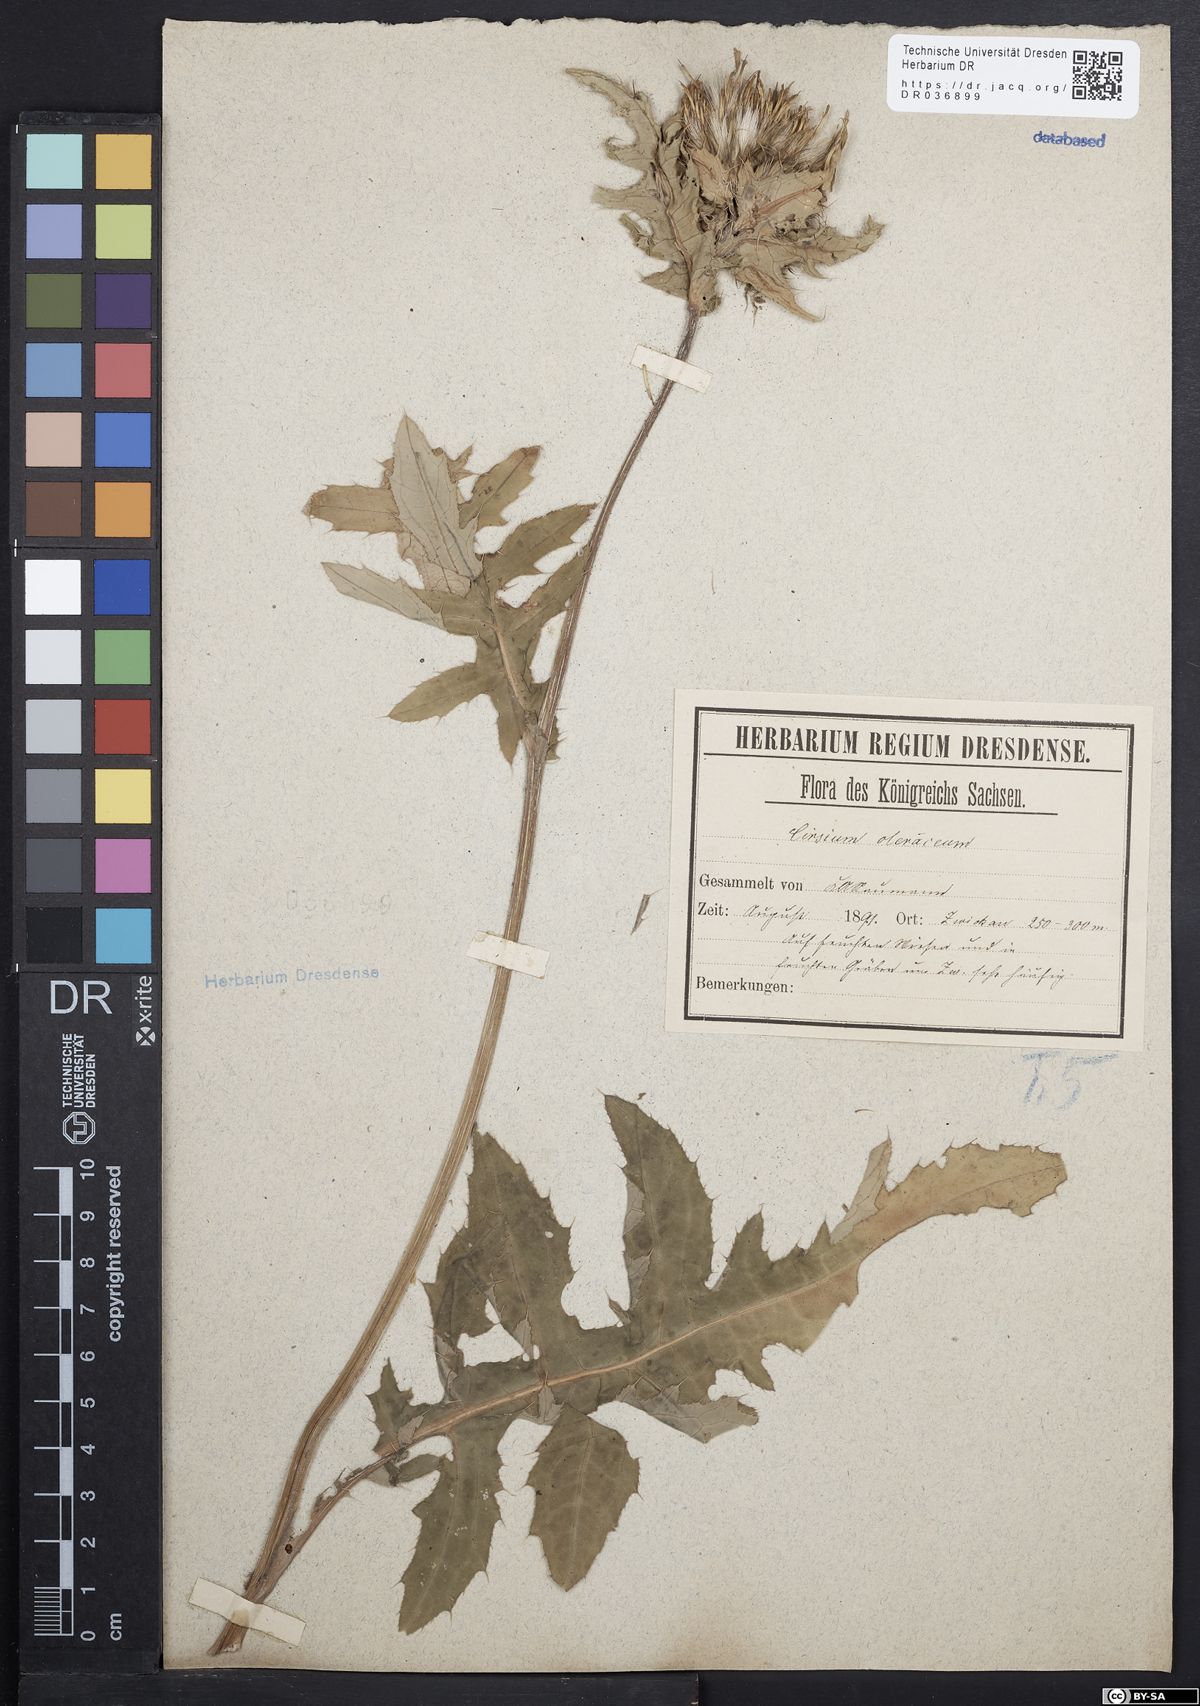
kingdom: Plantae
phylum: Tracheophyta
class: Magnoliopsida
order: Asterales
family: Asteraceae
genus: Cirsium
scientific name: Cirsium oleraceum
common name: Cabbage thistle
